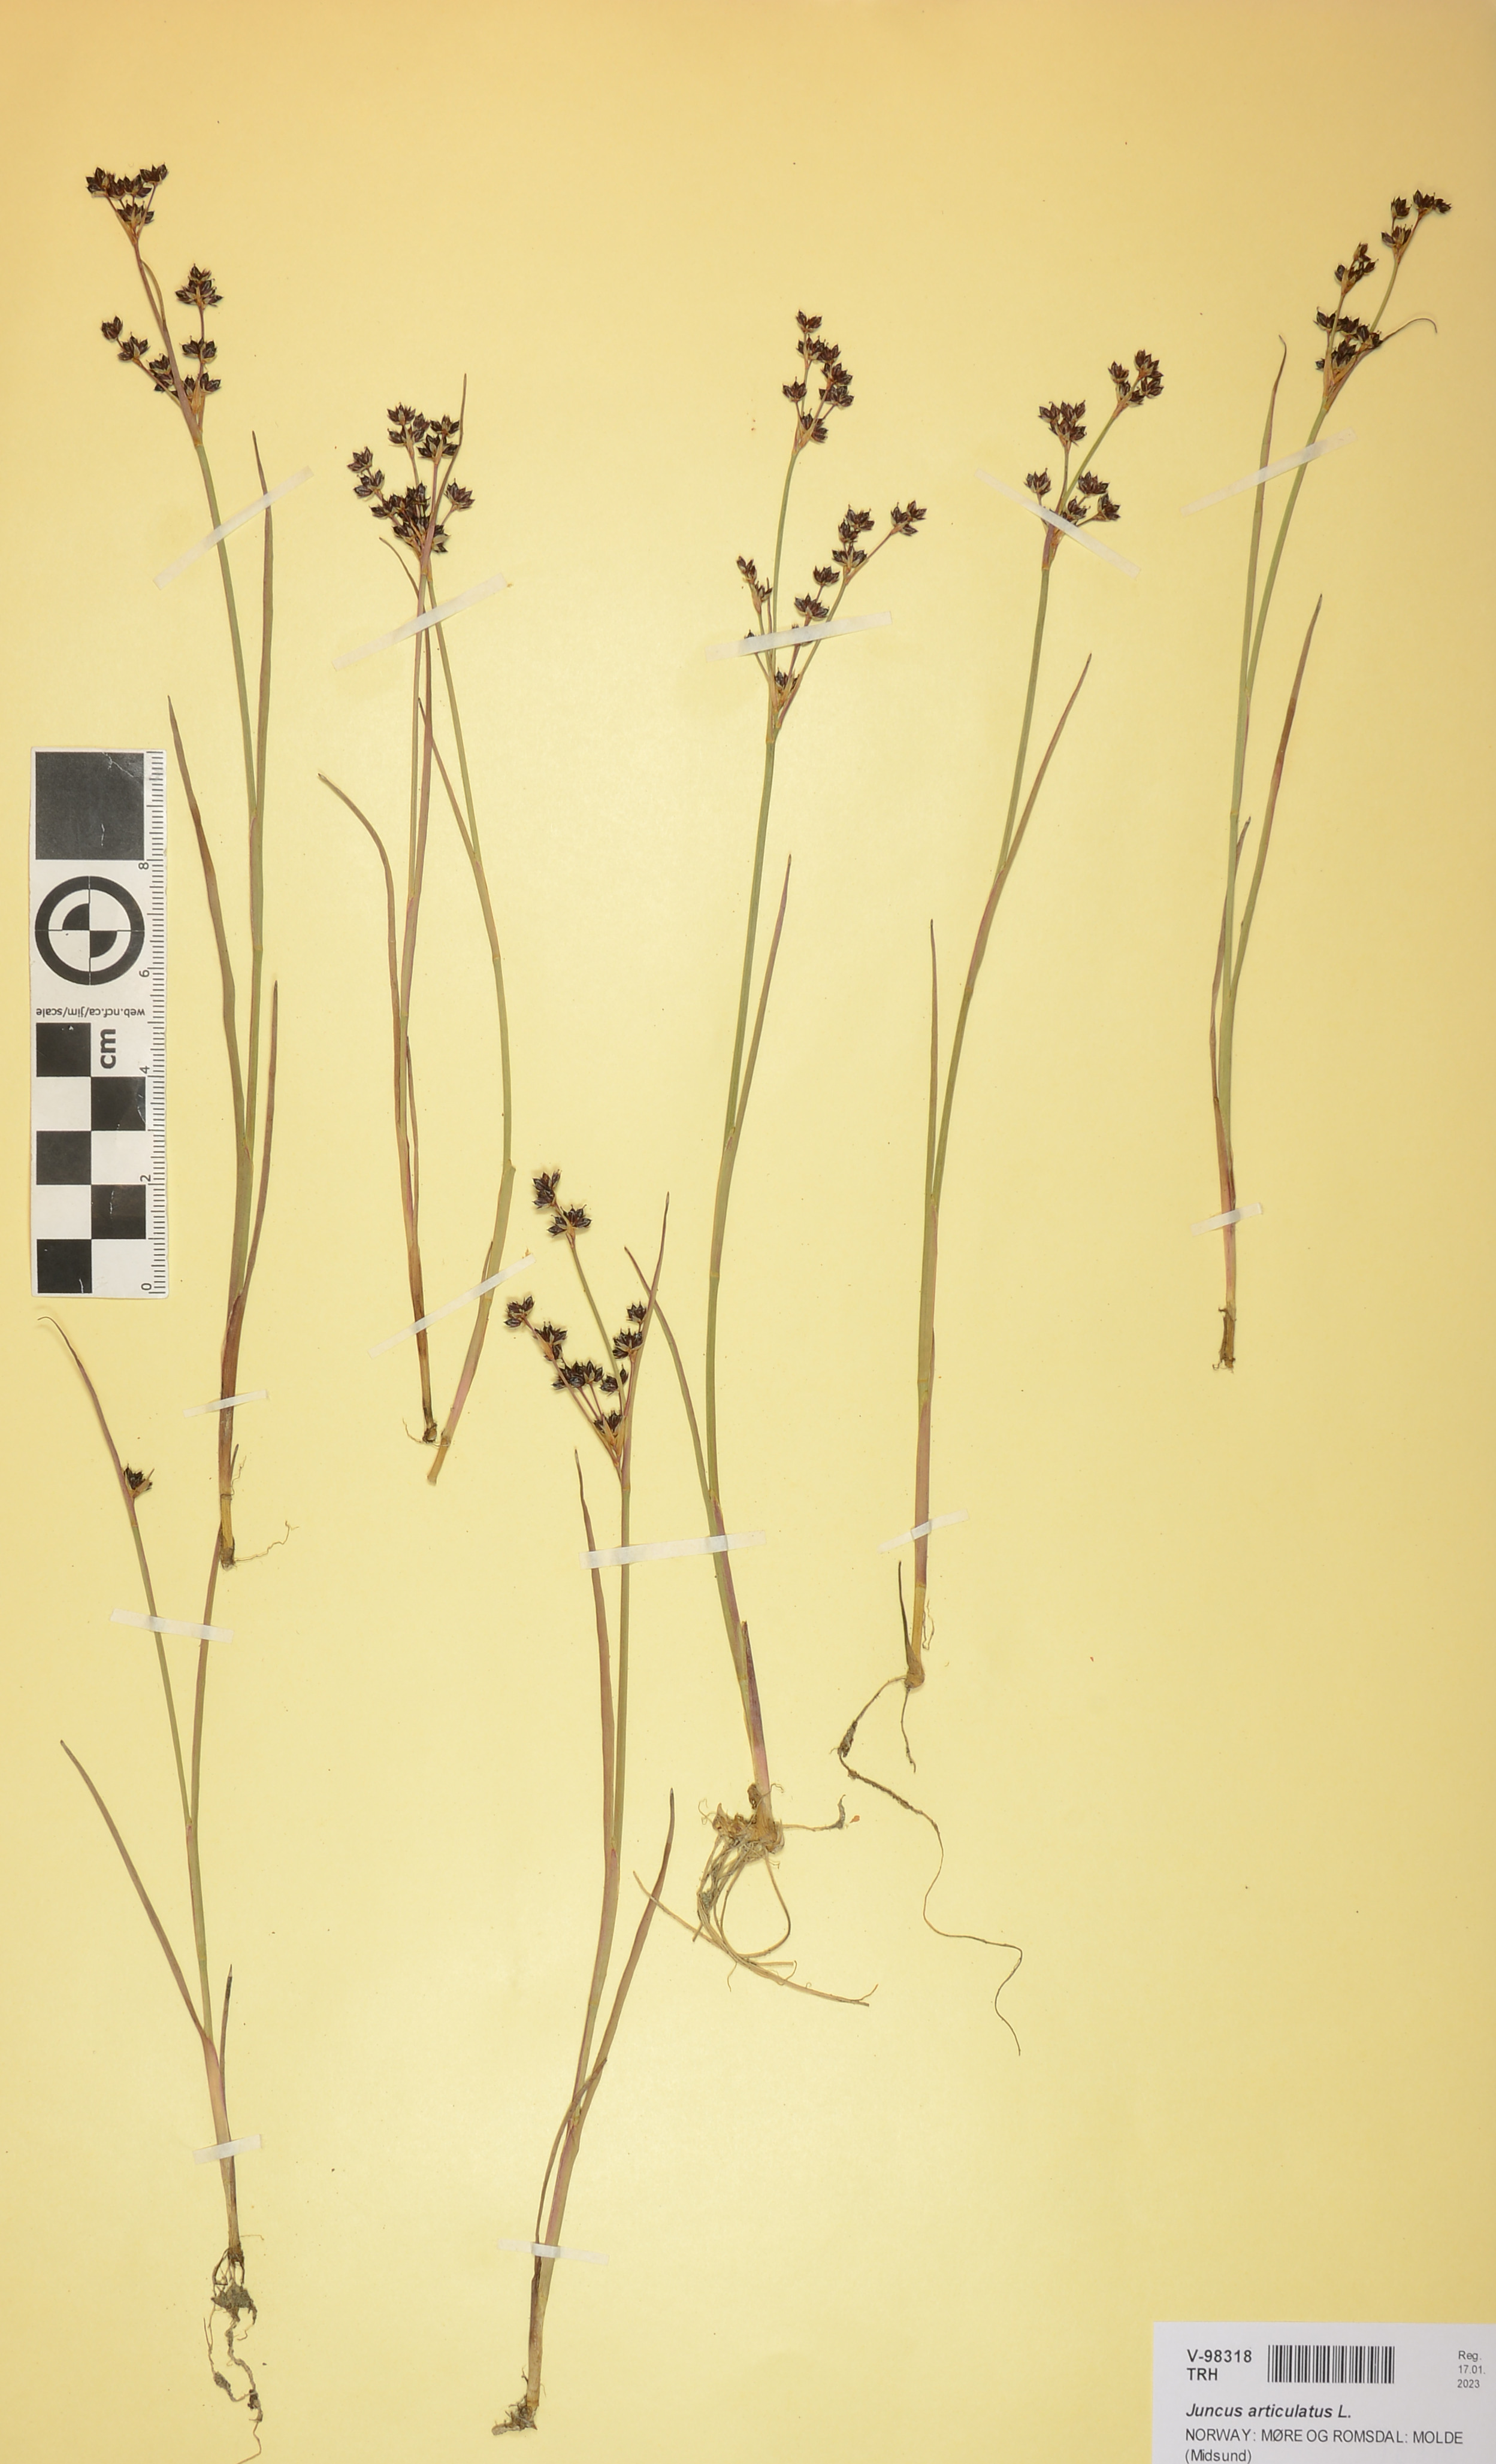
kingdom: Plantae
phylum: Tracheophyta
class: Liliopsida
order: Poales
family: Juncaceae
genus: Juncus
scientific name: Juncus articulatus
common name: Jointed rush
